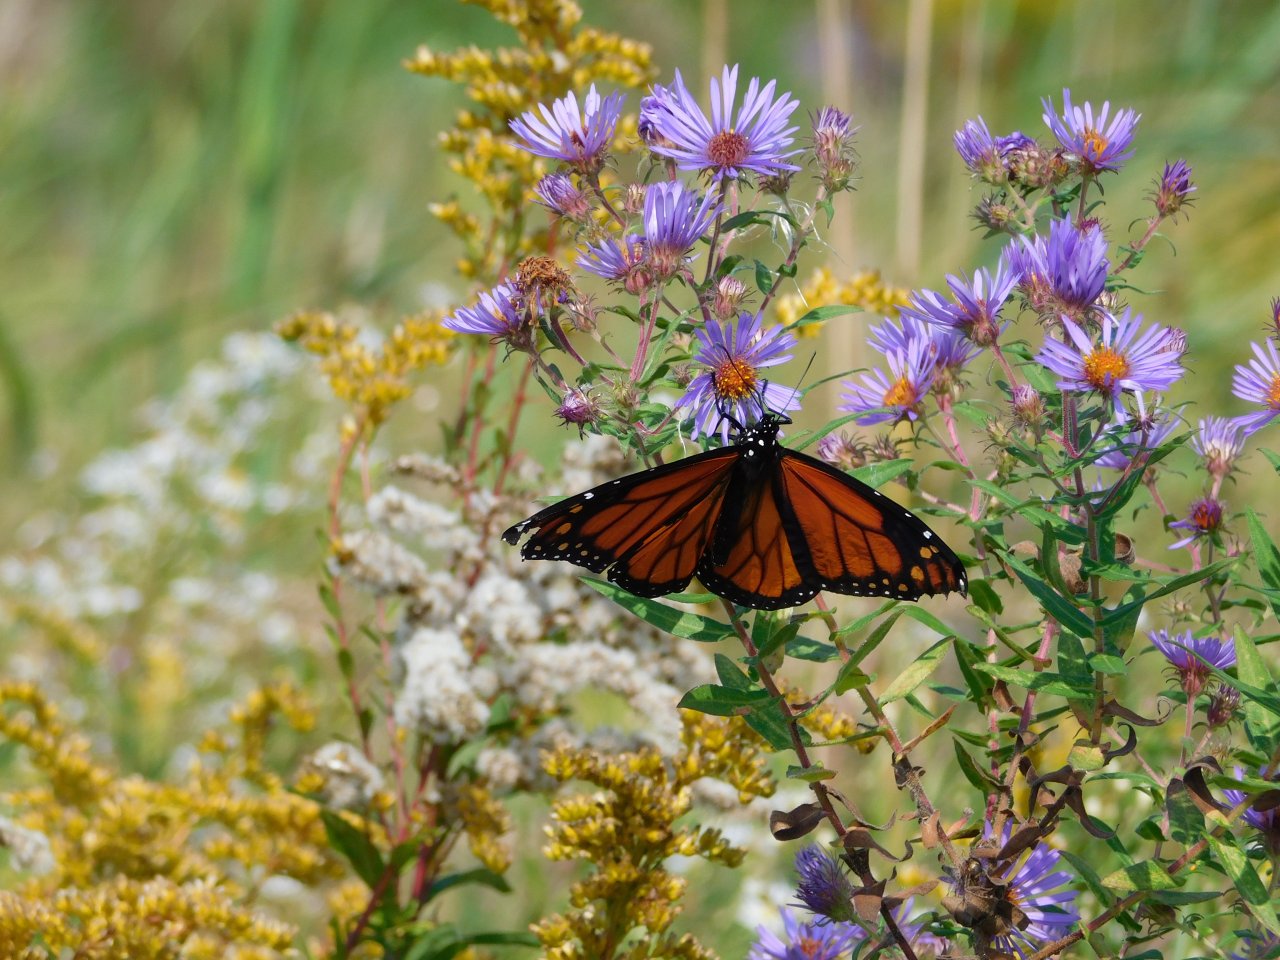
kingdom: Animalia
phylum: Arthropoda
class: Insecta
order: Lepidoptera
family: Nymphalidae
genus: Danaus
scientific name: Danaus plexippus
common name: Monarch
